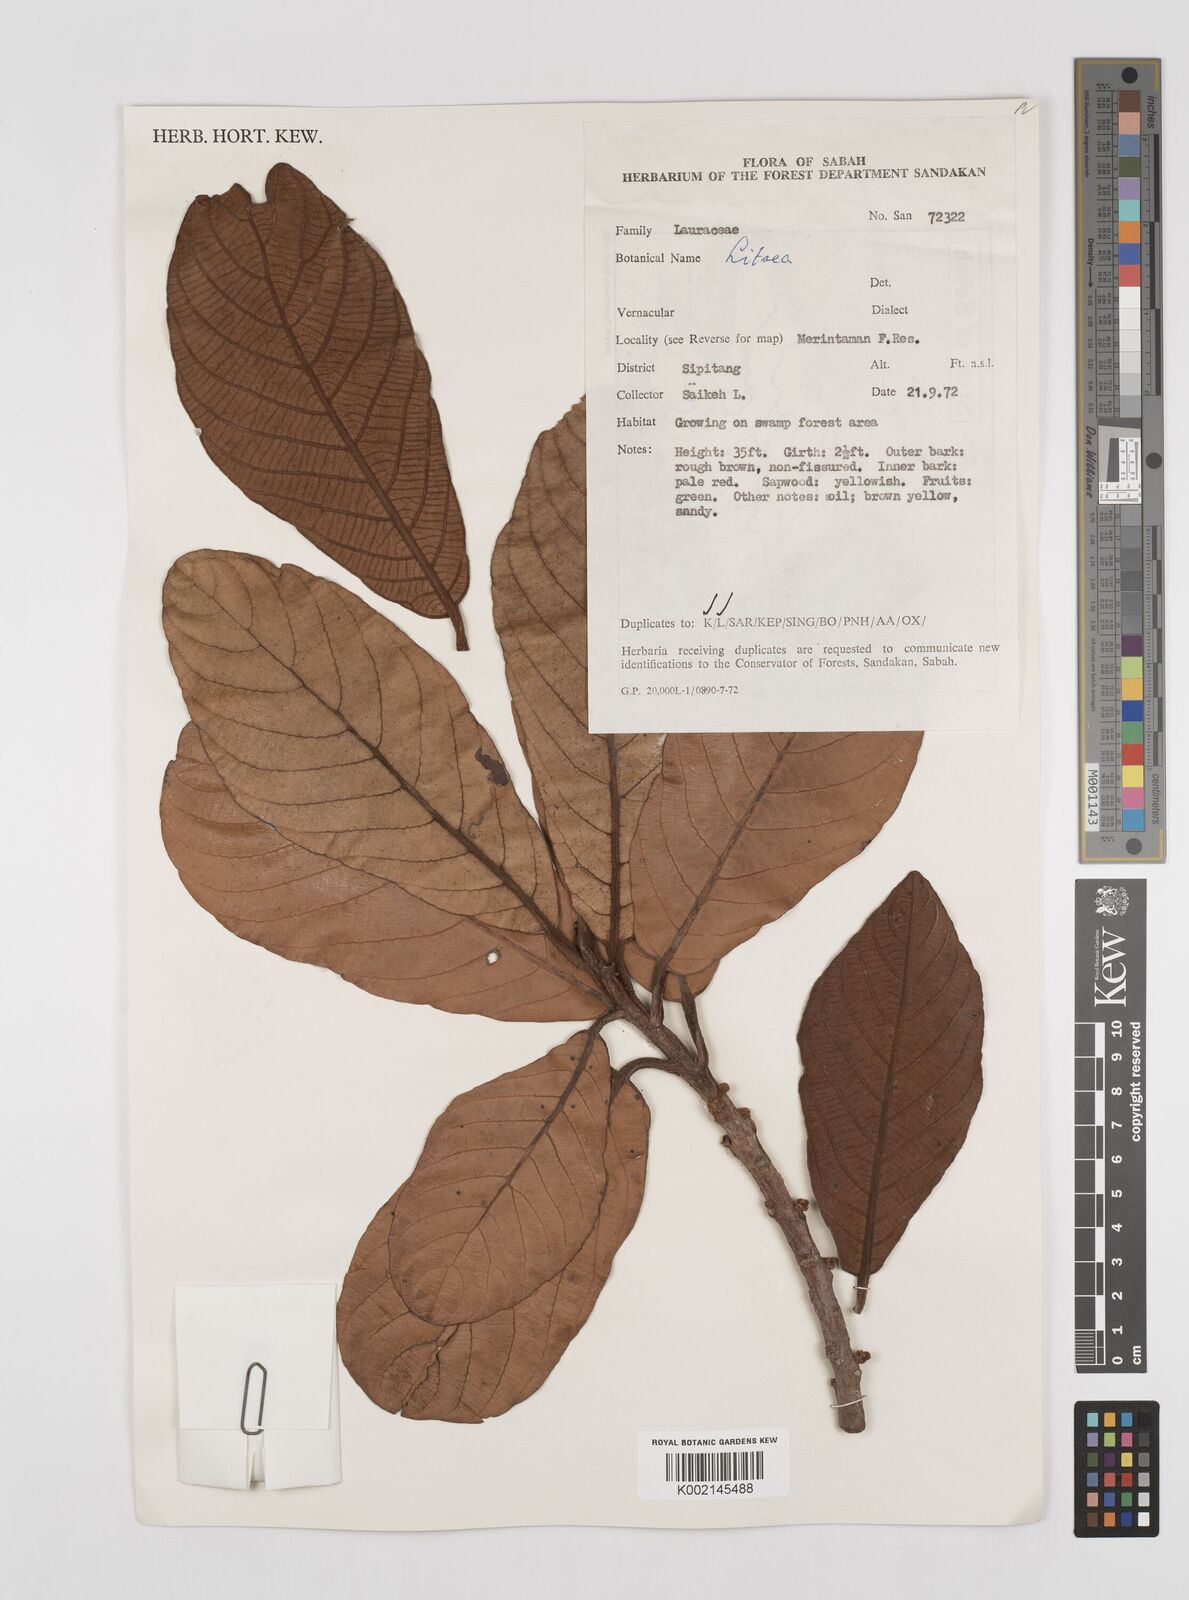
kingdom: Plantae
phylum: Tracheophyta
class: Magnoliopsida
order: Laurales
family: Lauraceae
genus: Litsea
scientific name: Litsea
